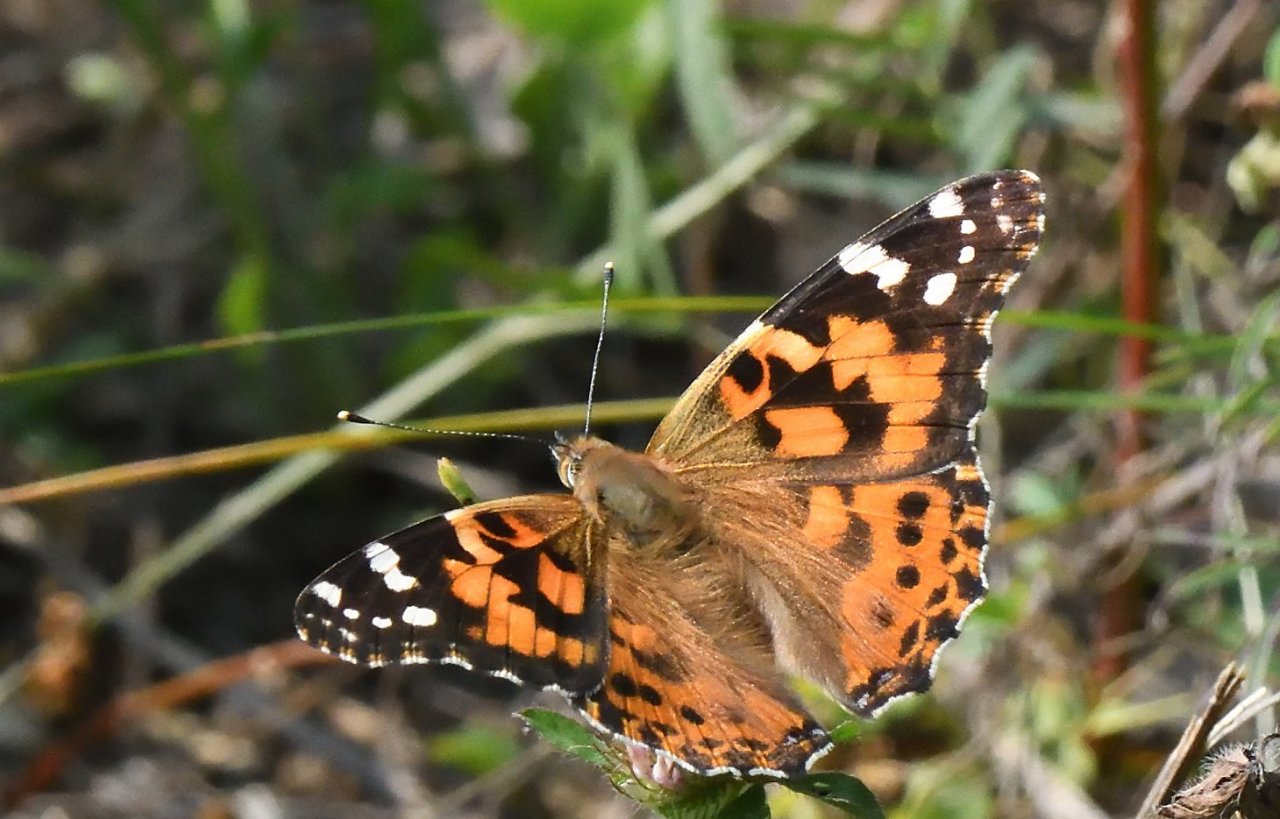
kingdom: Animalia
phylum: Arthropoda
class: Insecta
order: Lepidoptera
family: Nymphalidae
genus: Vanessa
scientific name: Vanessa cardui
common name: Painted Lady
